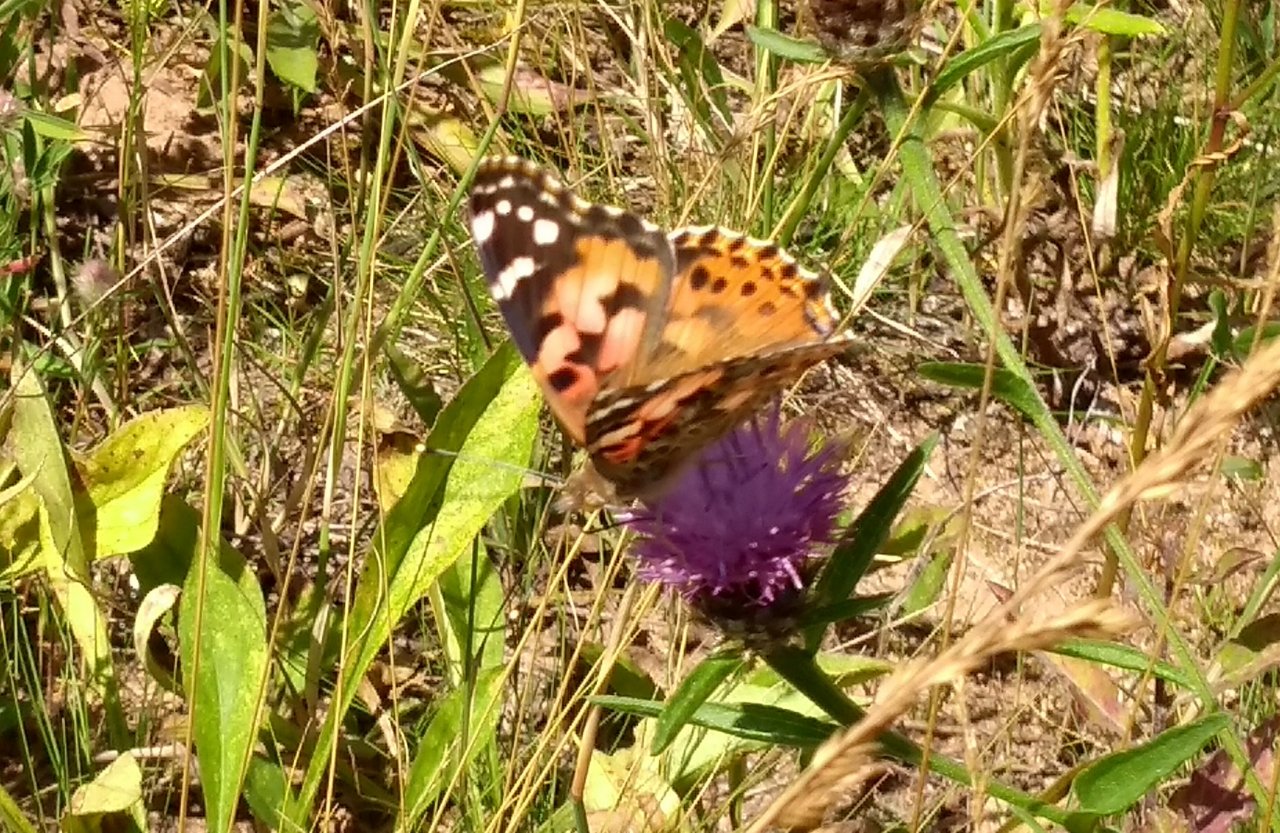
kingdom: Animalia
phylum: Arthropoda
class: Insecta
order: Lepidoptera
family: Nymphalidae
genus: Vanessa
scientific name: Vanessa cardui
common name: Painted Lady
